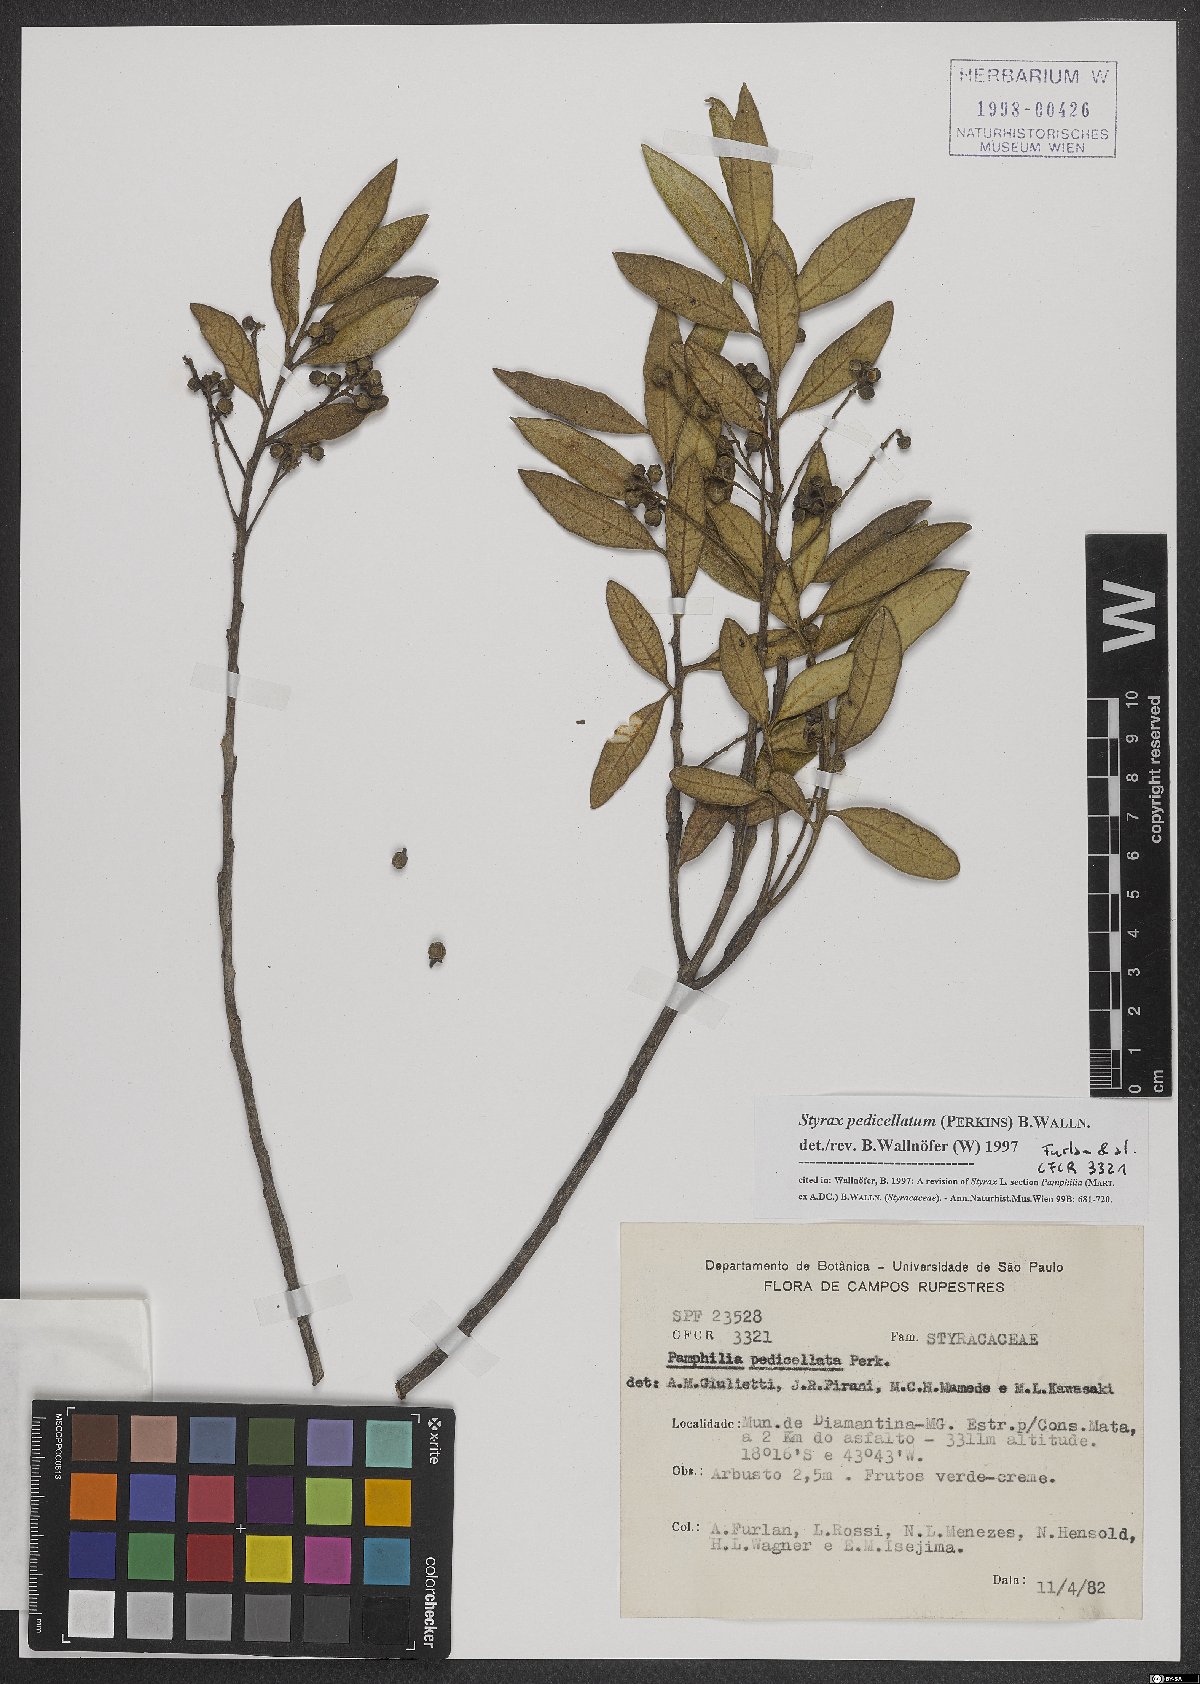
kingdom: Plantae
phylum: Tracheophyta
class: Magnoliopsida
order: Ericales
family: Styracaceae
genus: Styrax
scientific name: Styrax pedicellatus
